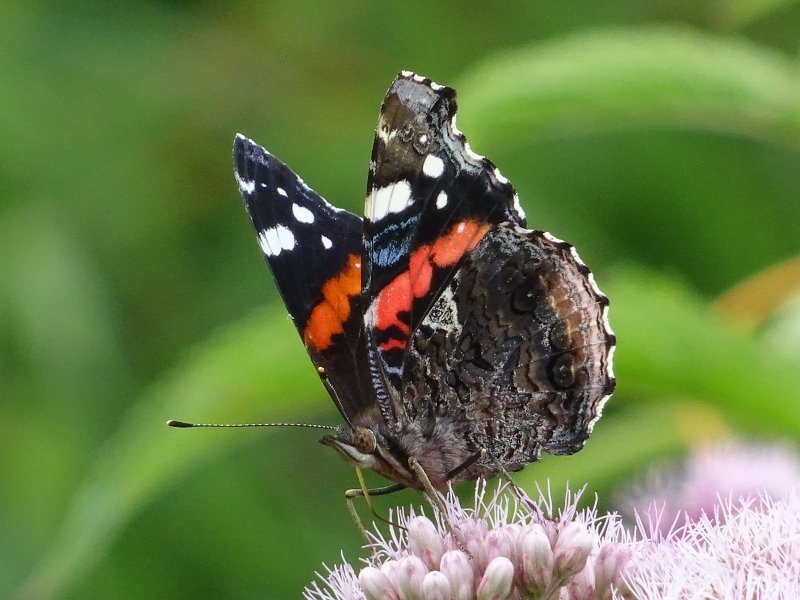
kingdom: Animalia
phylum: Arthropoda
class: Insecta
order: Lepidoptera
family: Nymphalidae
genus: Vanessa
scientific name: Vanessa atalanta
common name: Red Admiral
